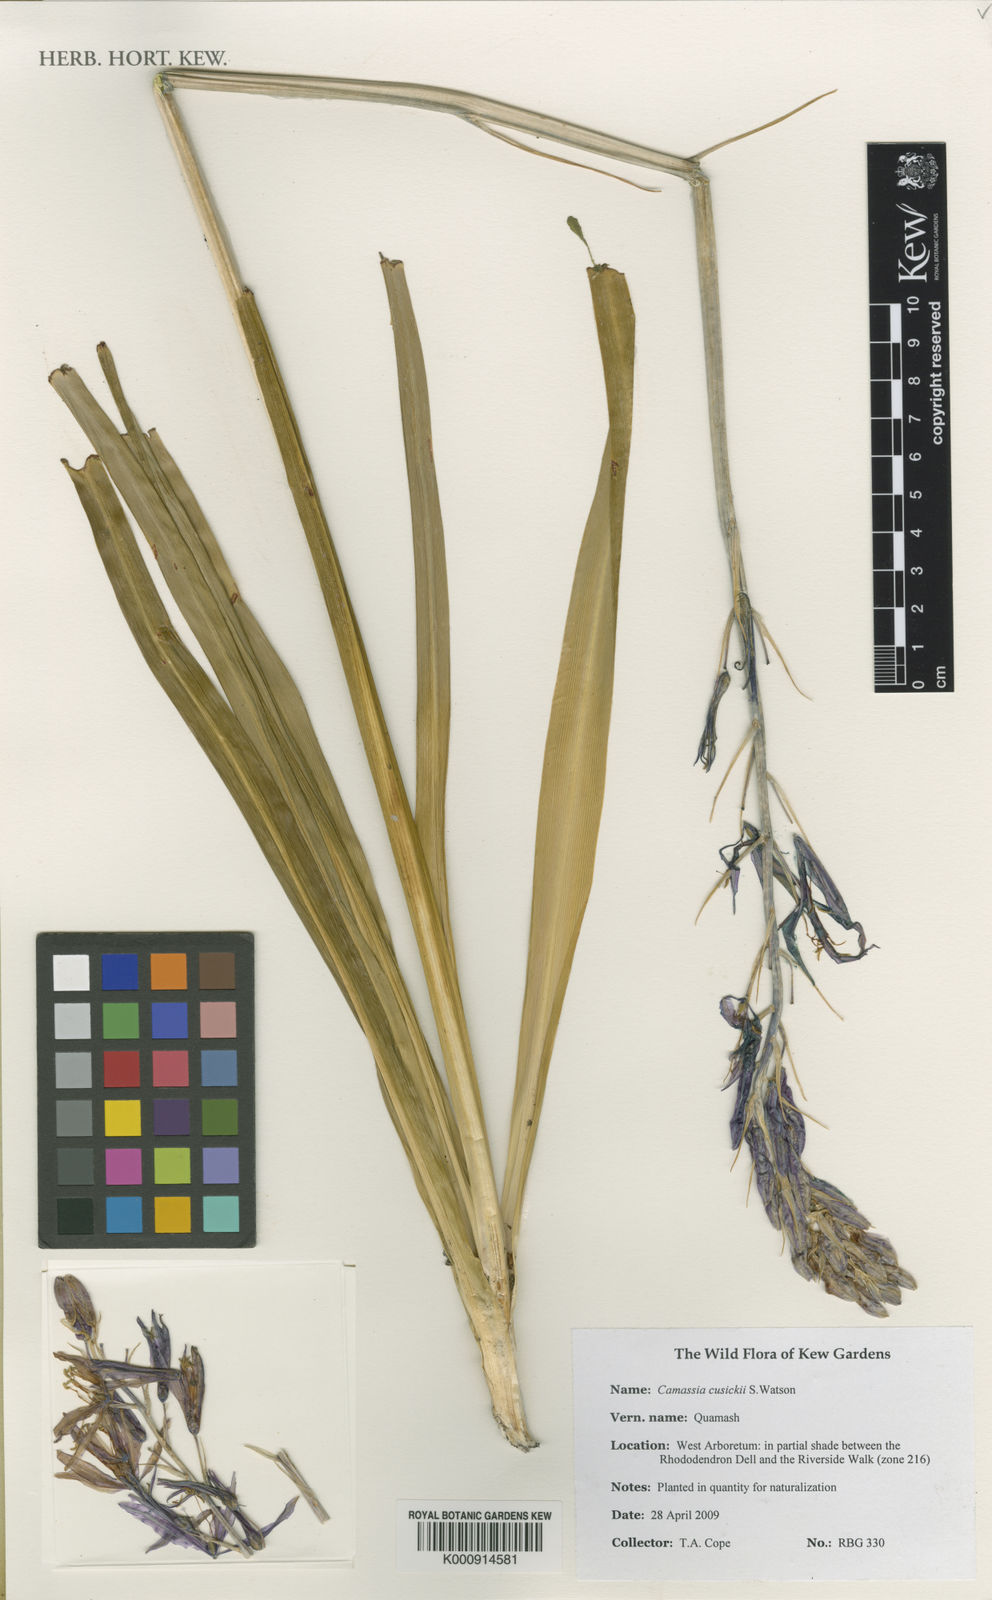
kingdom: Plantae
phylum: Tracheophyta
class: Liliopsida
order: Asparagales
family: Asparagaceae
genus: Camassia
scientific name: Camassia cusickii
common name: Cusick camas
